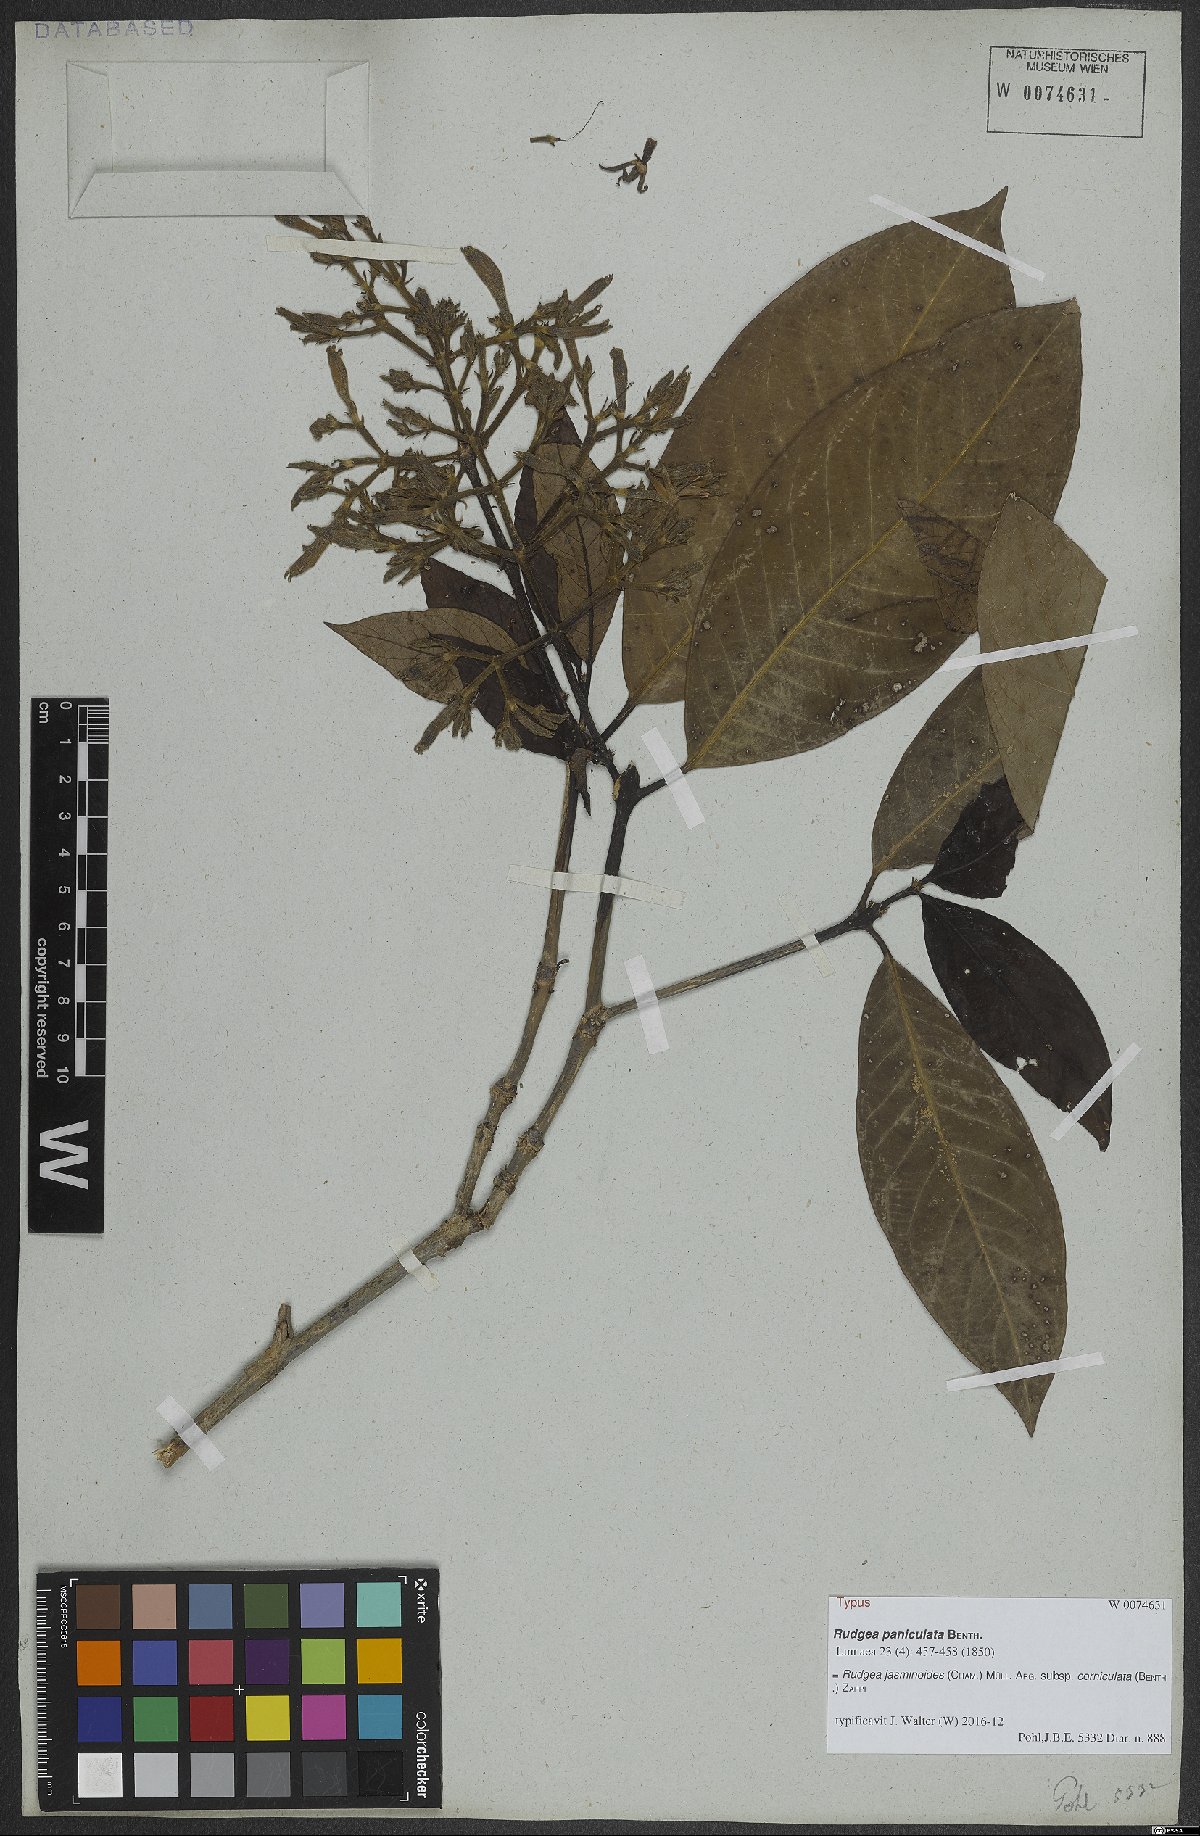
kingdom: Plantae
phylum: Tracheophyta
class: Magnoliopsida
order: Gentianales
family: Rubiaceae
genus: Rudgea
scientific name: Rudgea jasminoides
